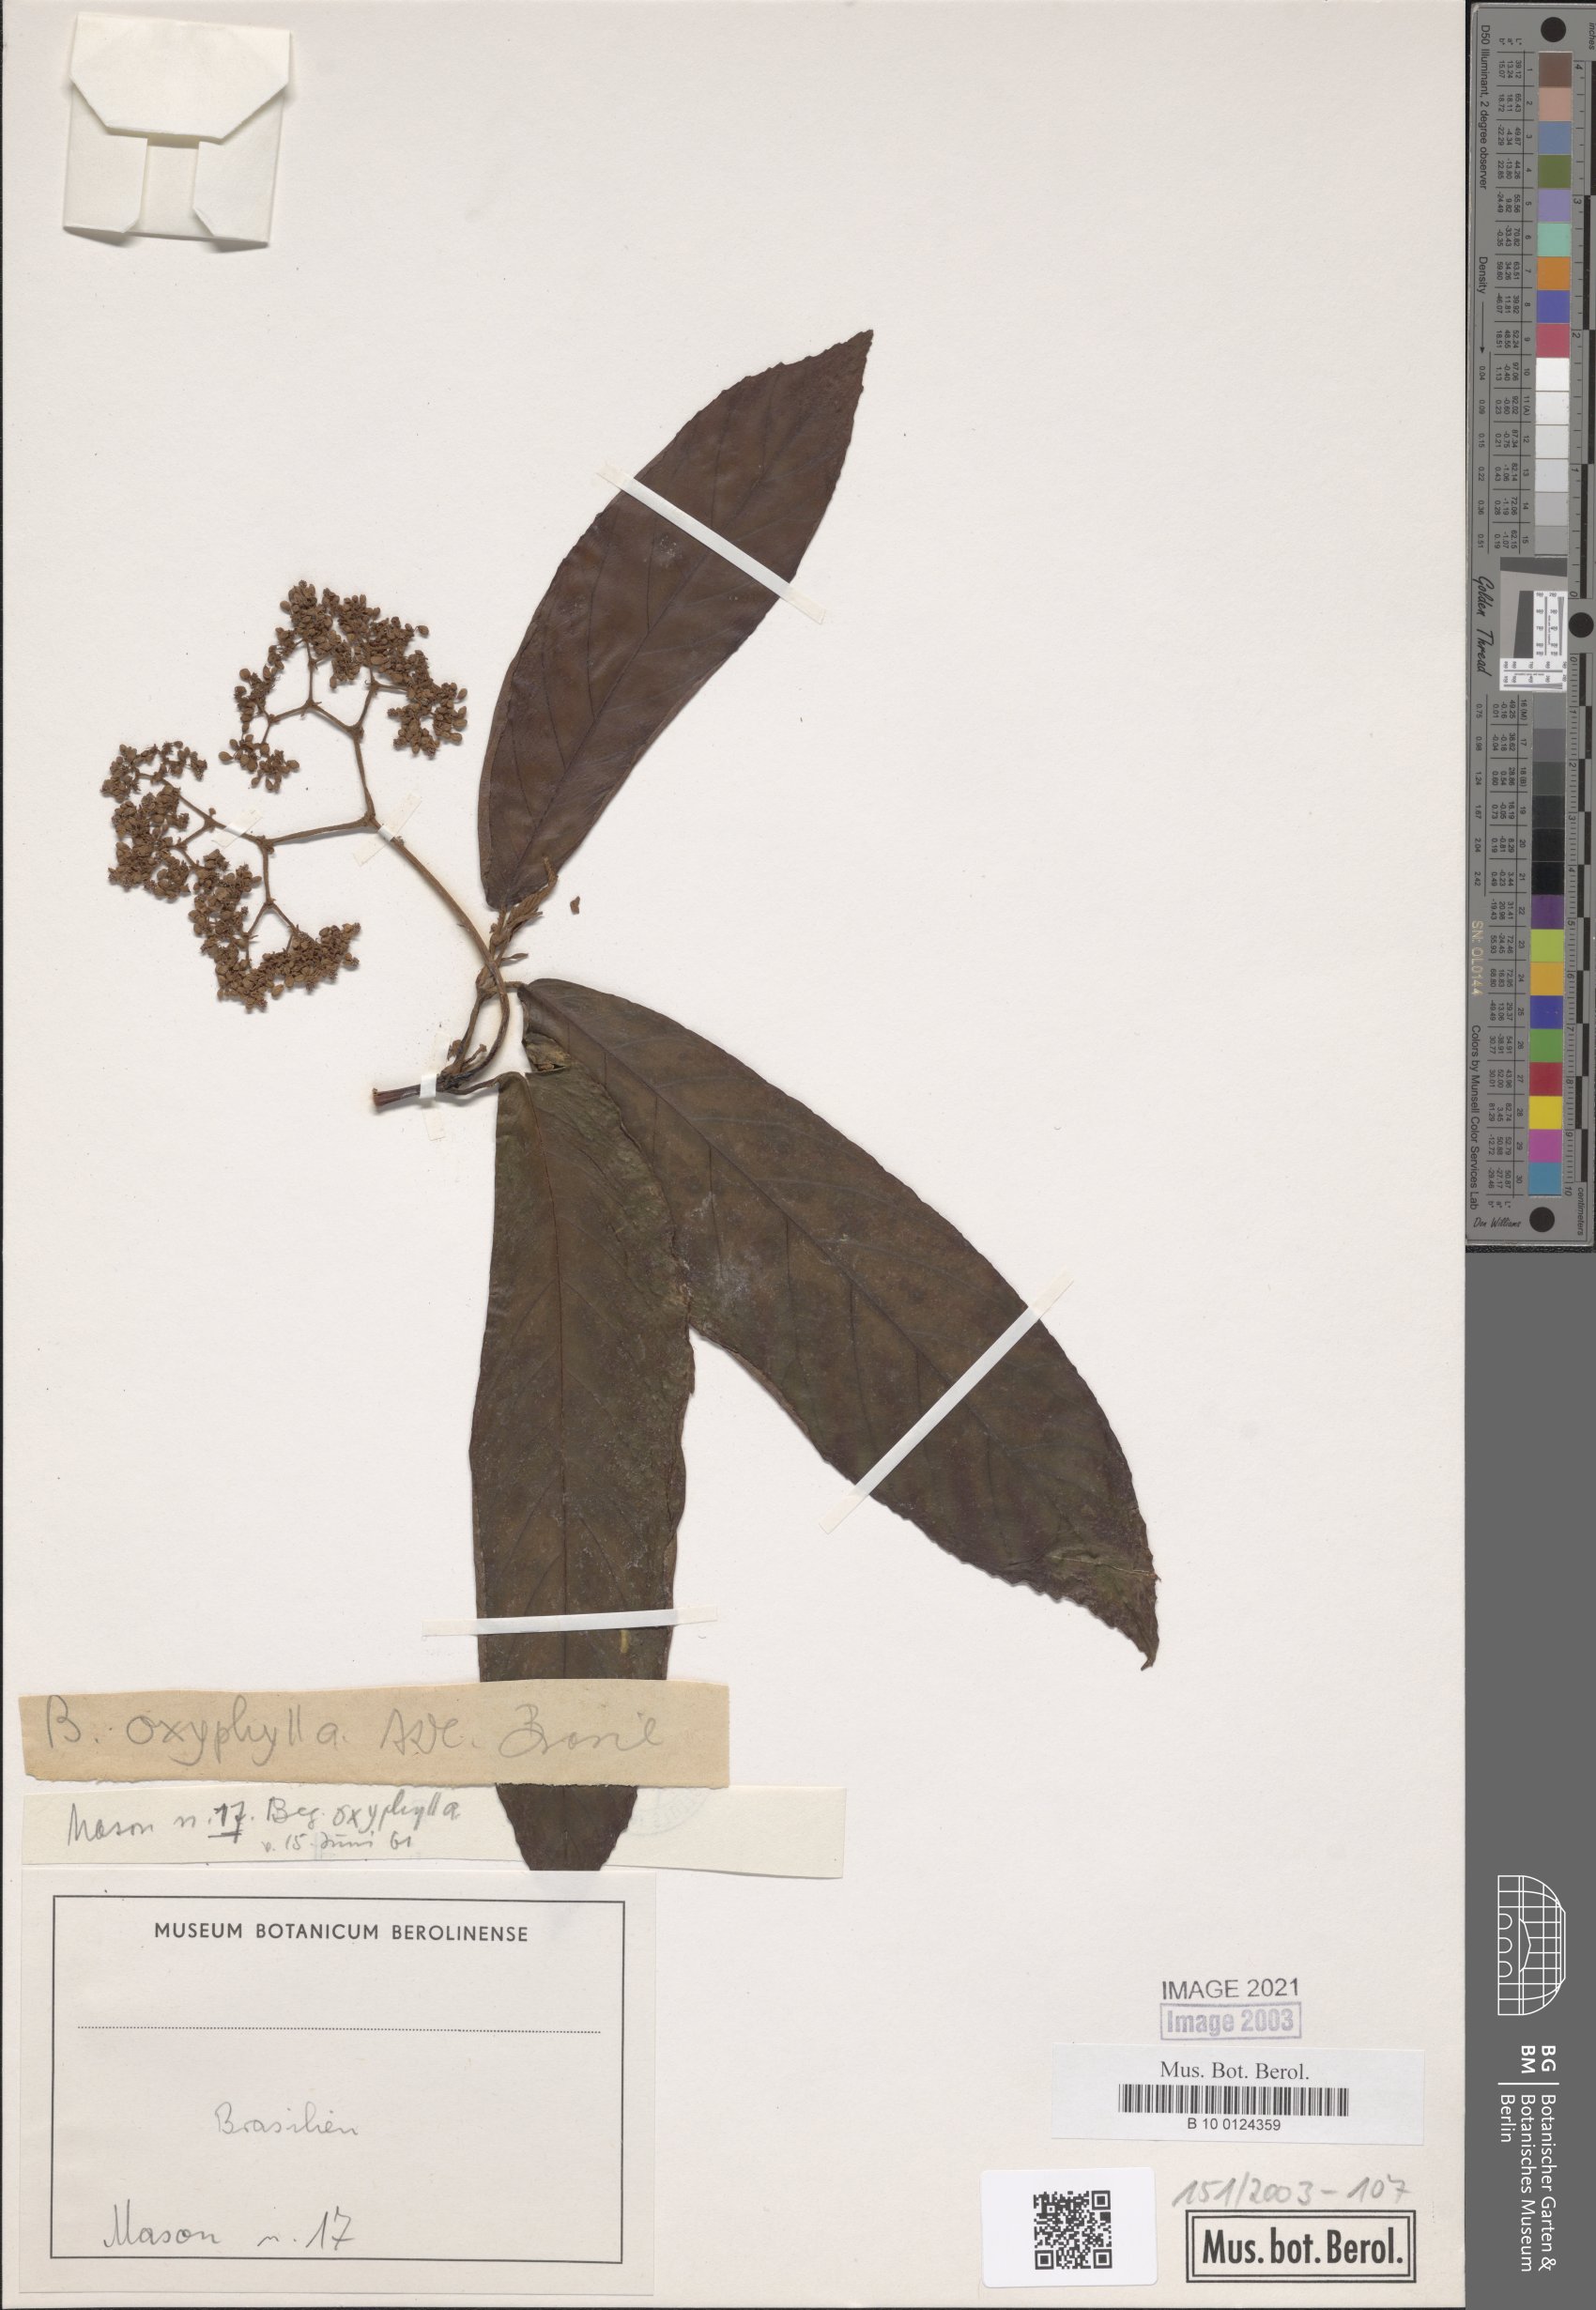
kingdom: Plantae
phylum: Tracheophyta
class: Magnoliopsida
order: Cucurbitales
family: Begoniaceae
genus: Begonia
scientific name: Begonia arborescens
